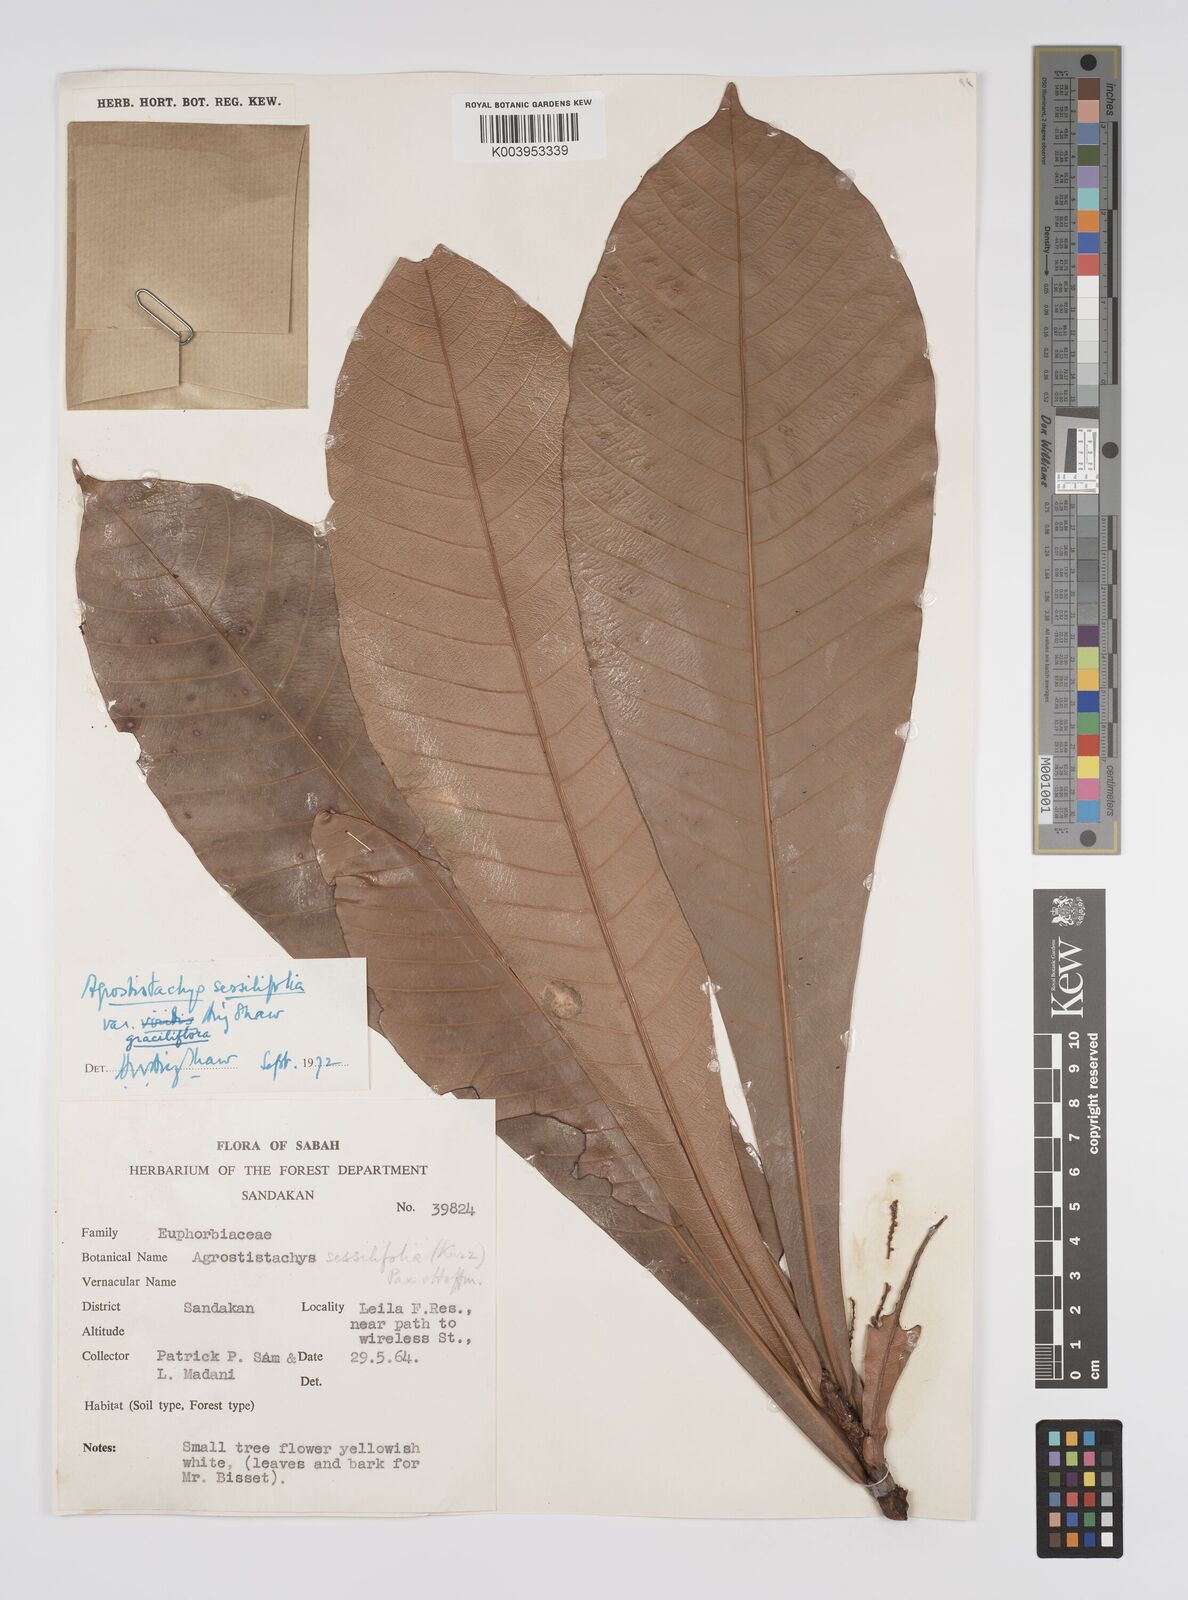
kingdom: Plantae
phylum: Tracheophyta
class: Magnoliopsida
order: Malpighiales
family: Euphorbiaceae
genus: Agrostistachys
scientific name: Agrostistachys sessilifolia
